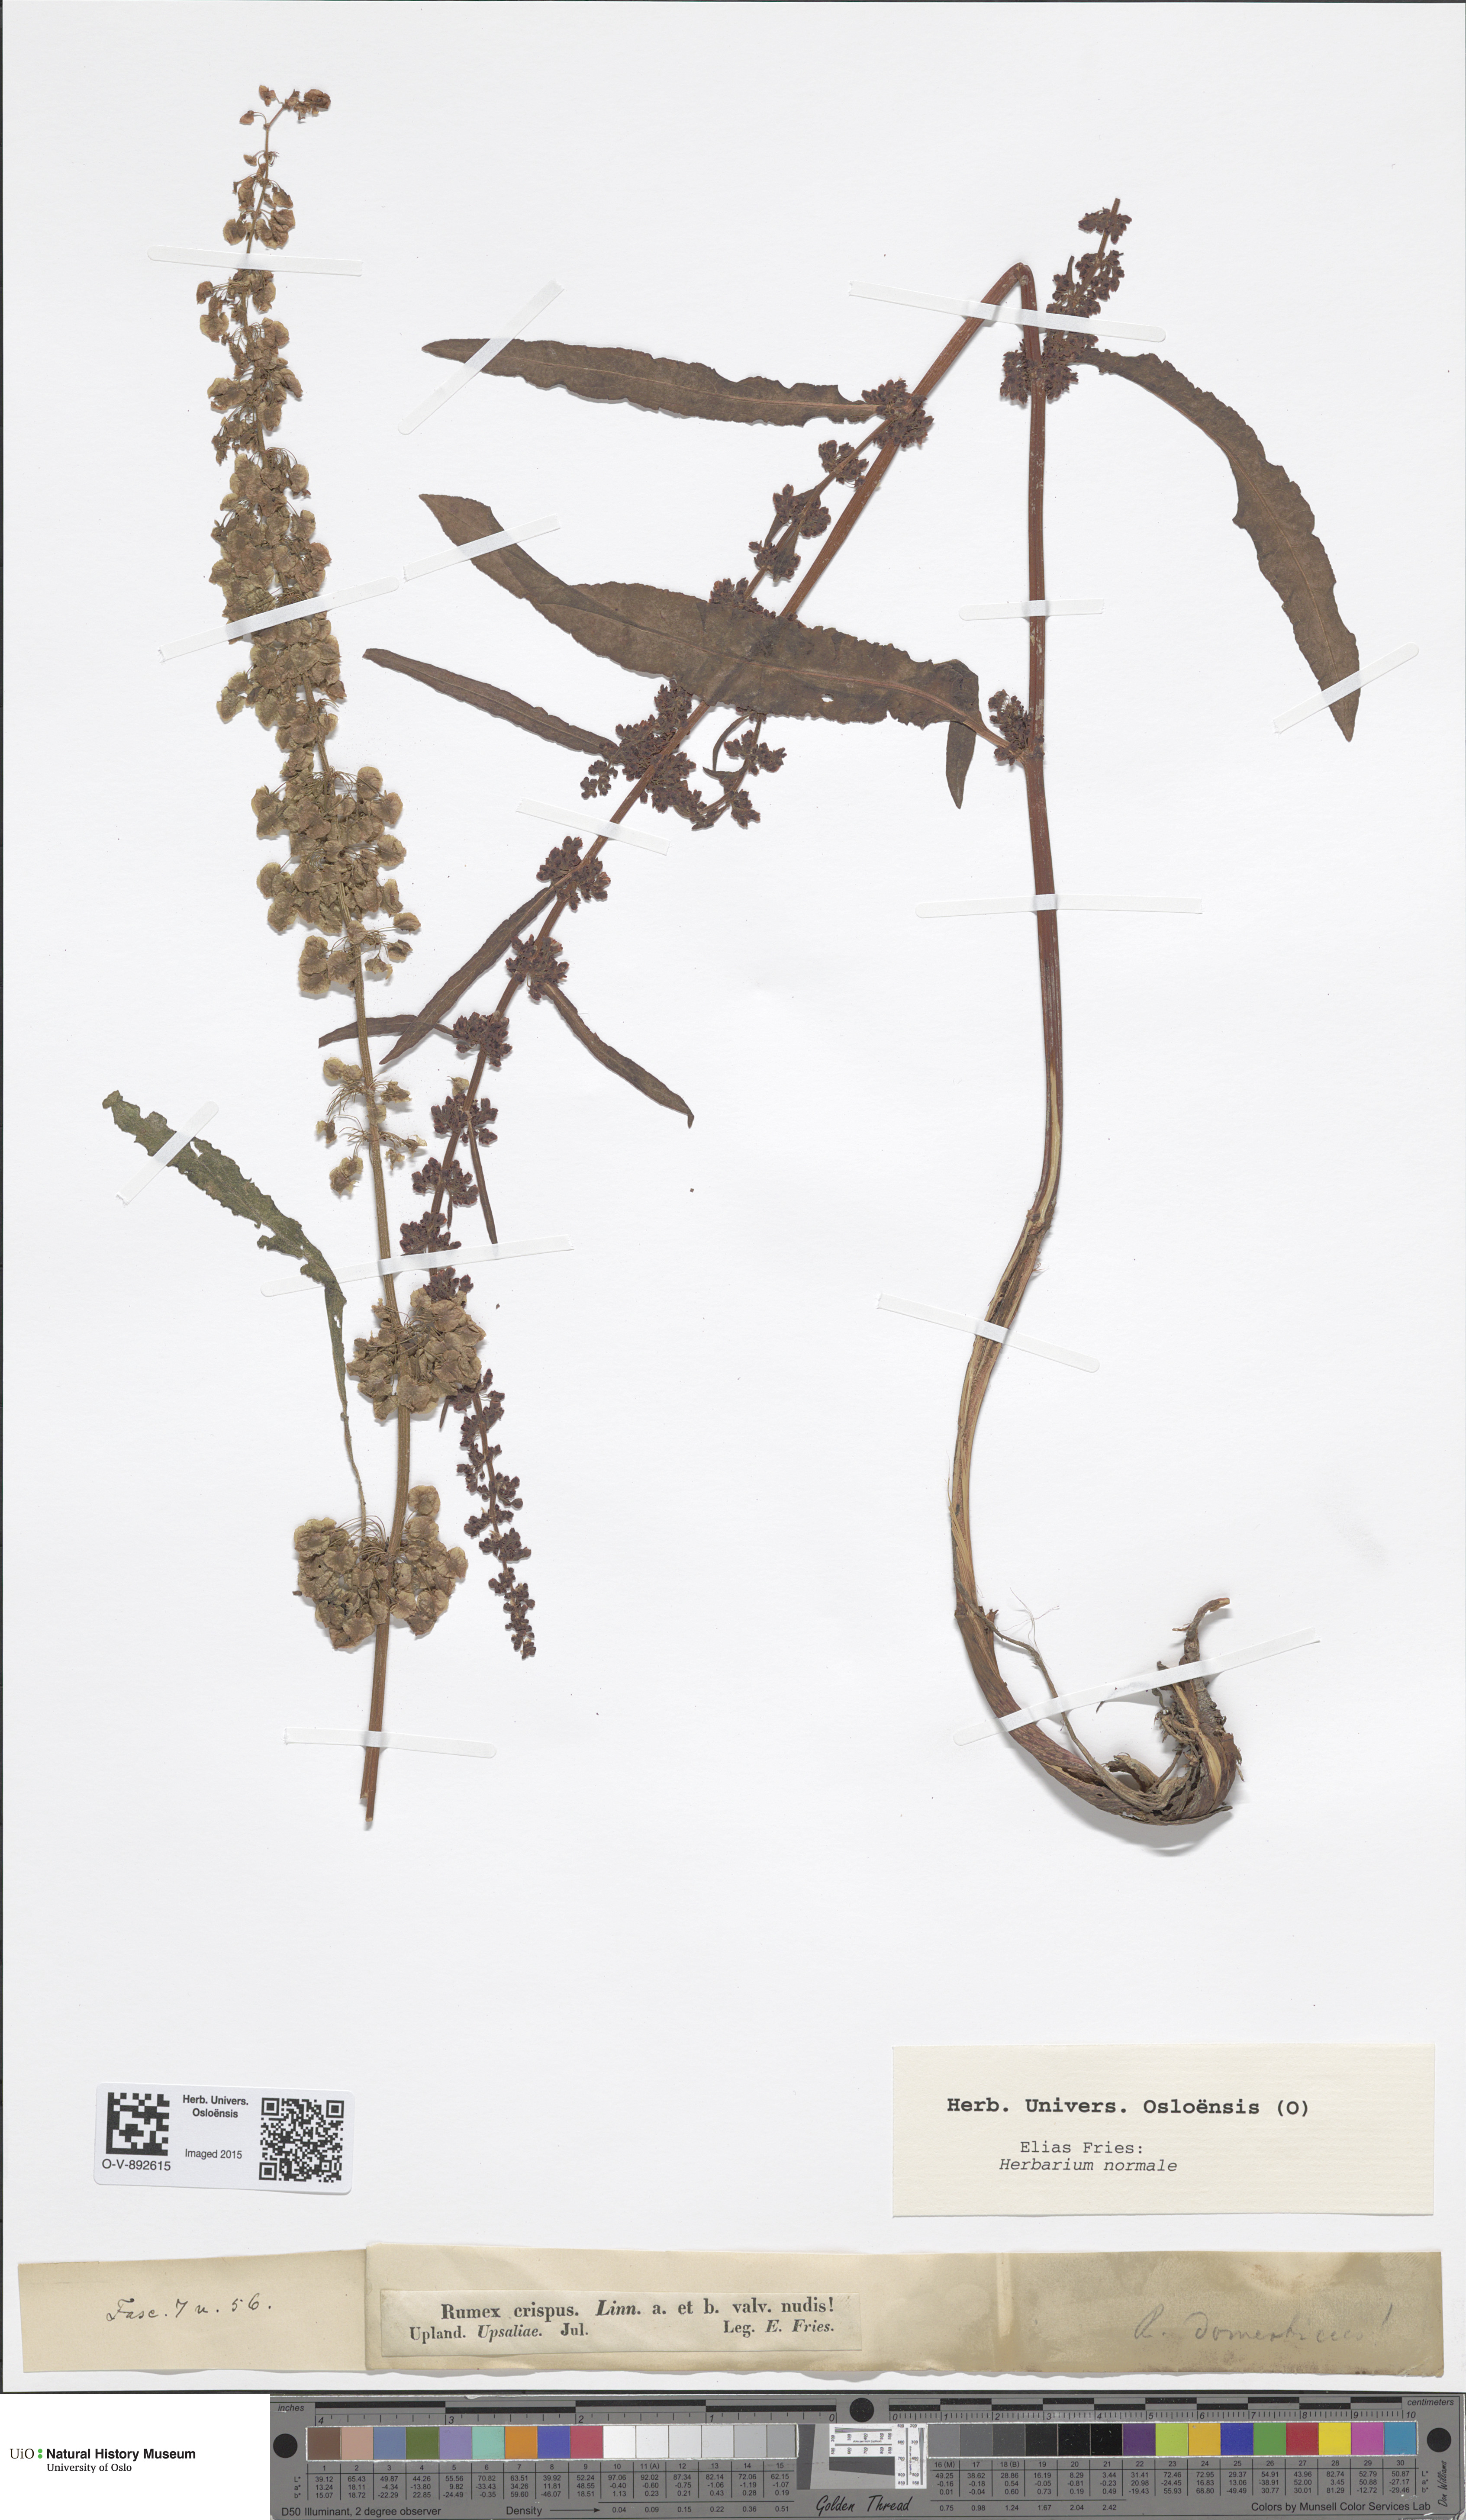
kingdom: Plantae
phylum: Tracheophyta
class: Magnoliopsida
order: Caryophyllales
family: Polygonaceae
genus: Rumex
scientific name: Rumex crispus
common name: Curled dock
